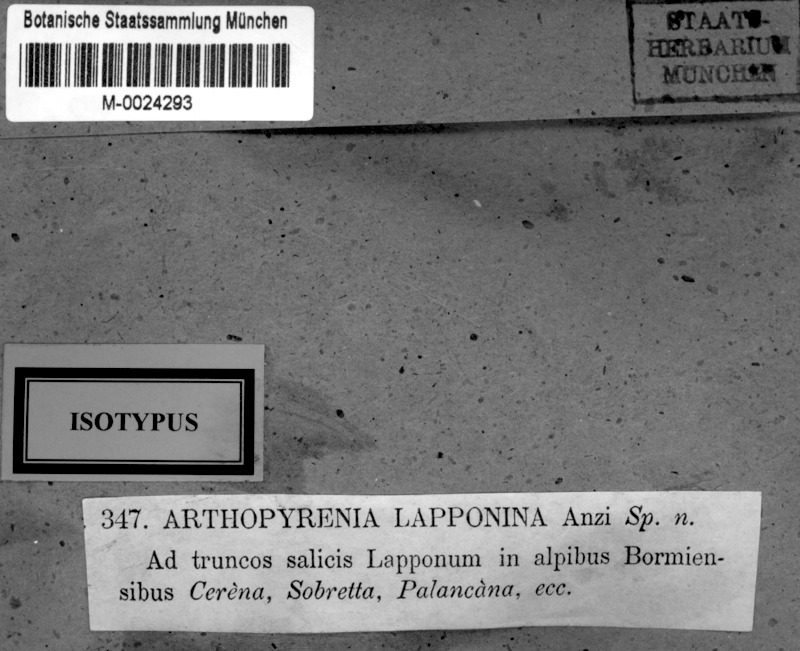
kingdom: Fungi
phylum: Ascomycota
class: Dothideomycetes
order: Trypetheliales
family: Trypetheliaceae
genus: Arthopyrenia
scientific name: Arthopyrenia analepta
